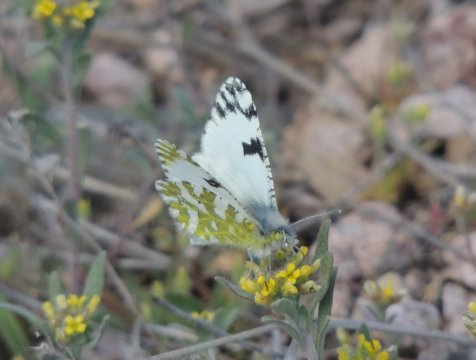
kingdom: Animalia
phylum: Arthropoda
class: Insecta
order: Lepidoptera
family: Pieridae
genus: Euchloe
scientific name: Euchloe lotta
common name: Desert Marble
